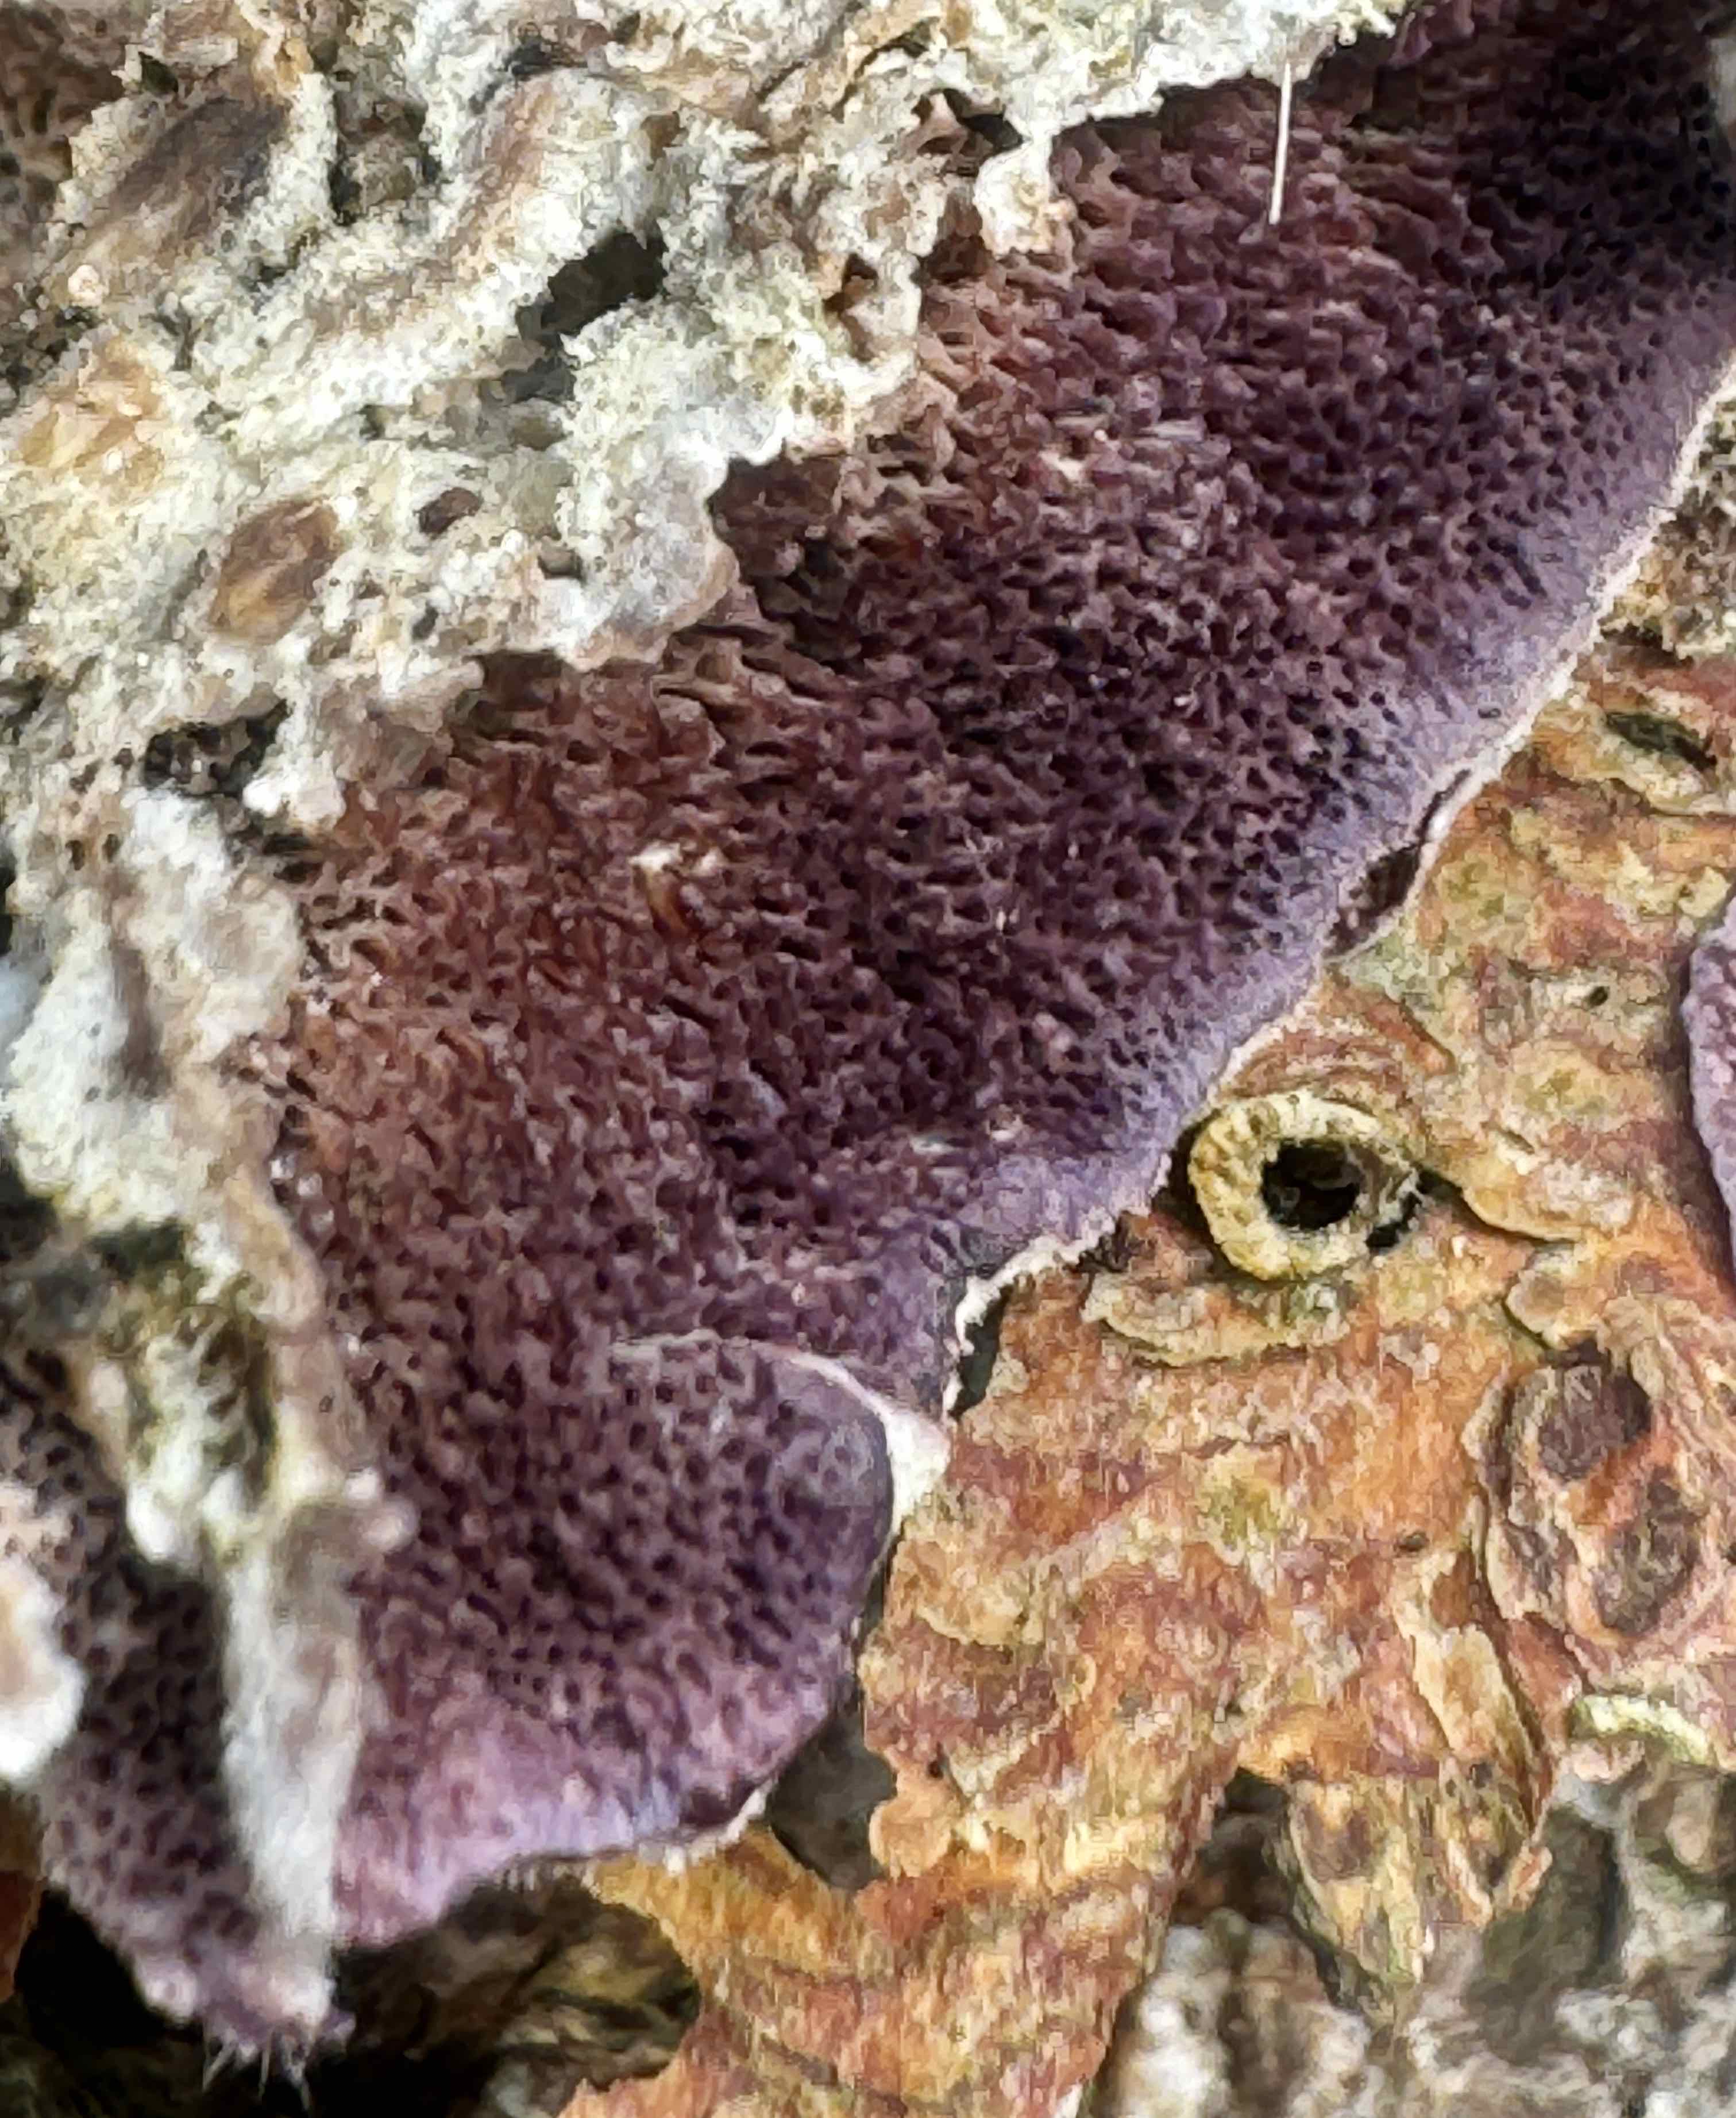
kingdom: Fungi
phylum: Basidiomycota
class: Agaricomycetes
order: Hymenochaetales
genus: Trichaptum
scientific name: Trichaptum abietinum
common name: almindelig violporesvamp
